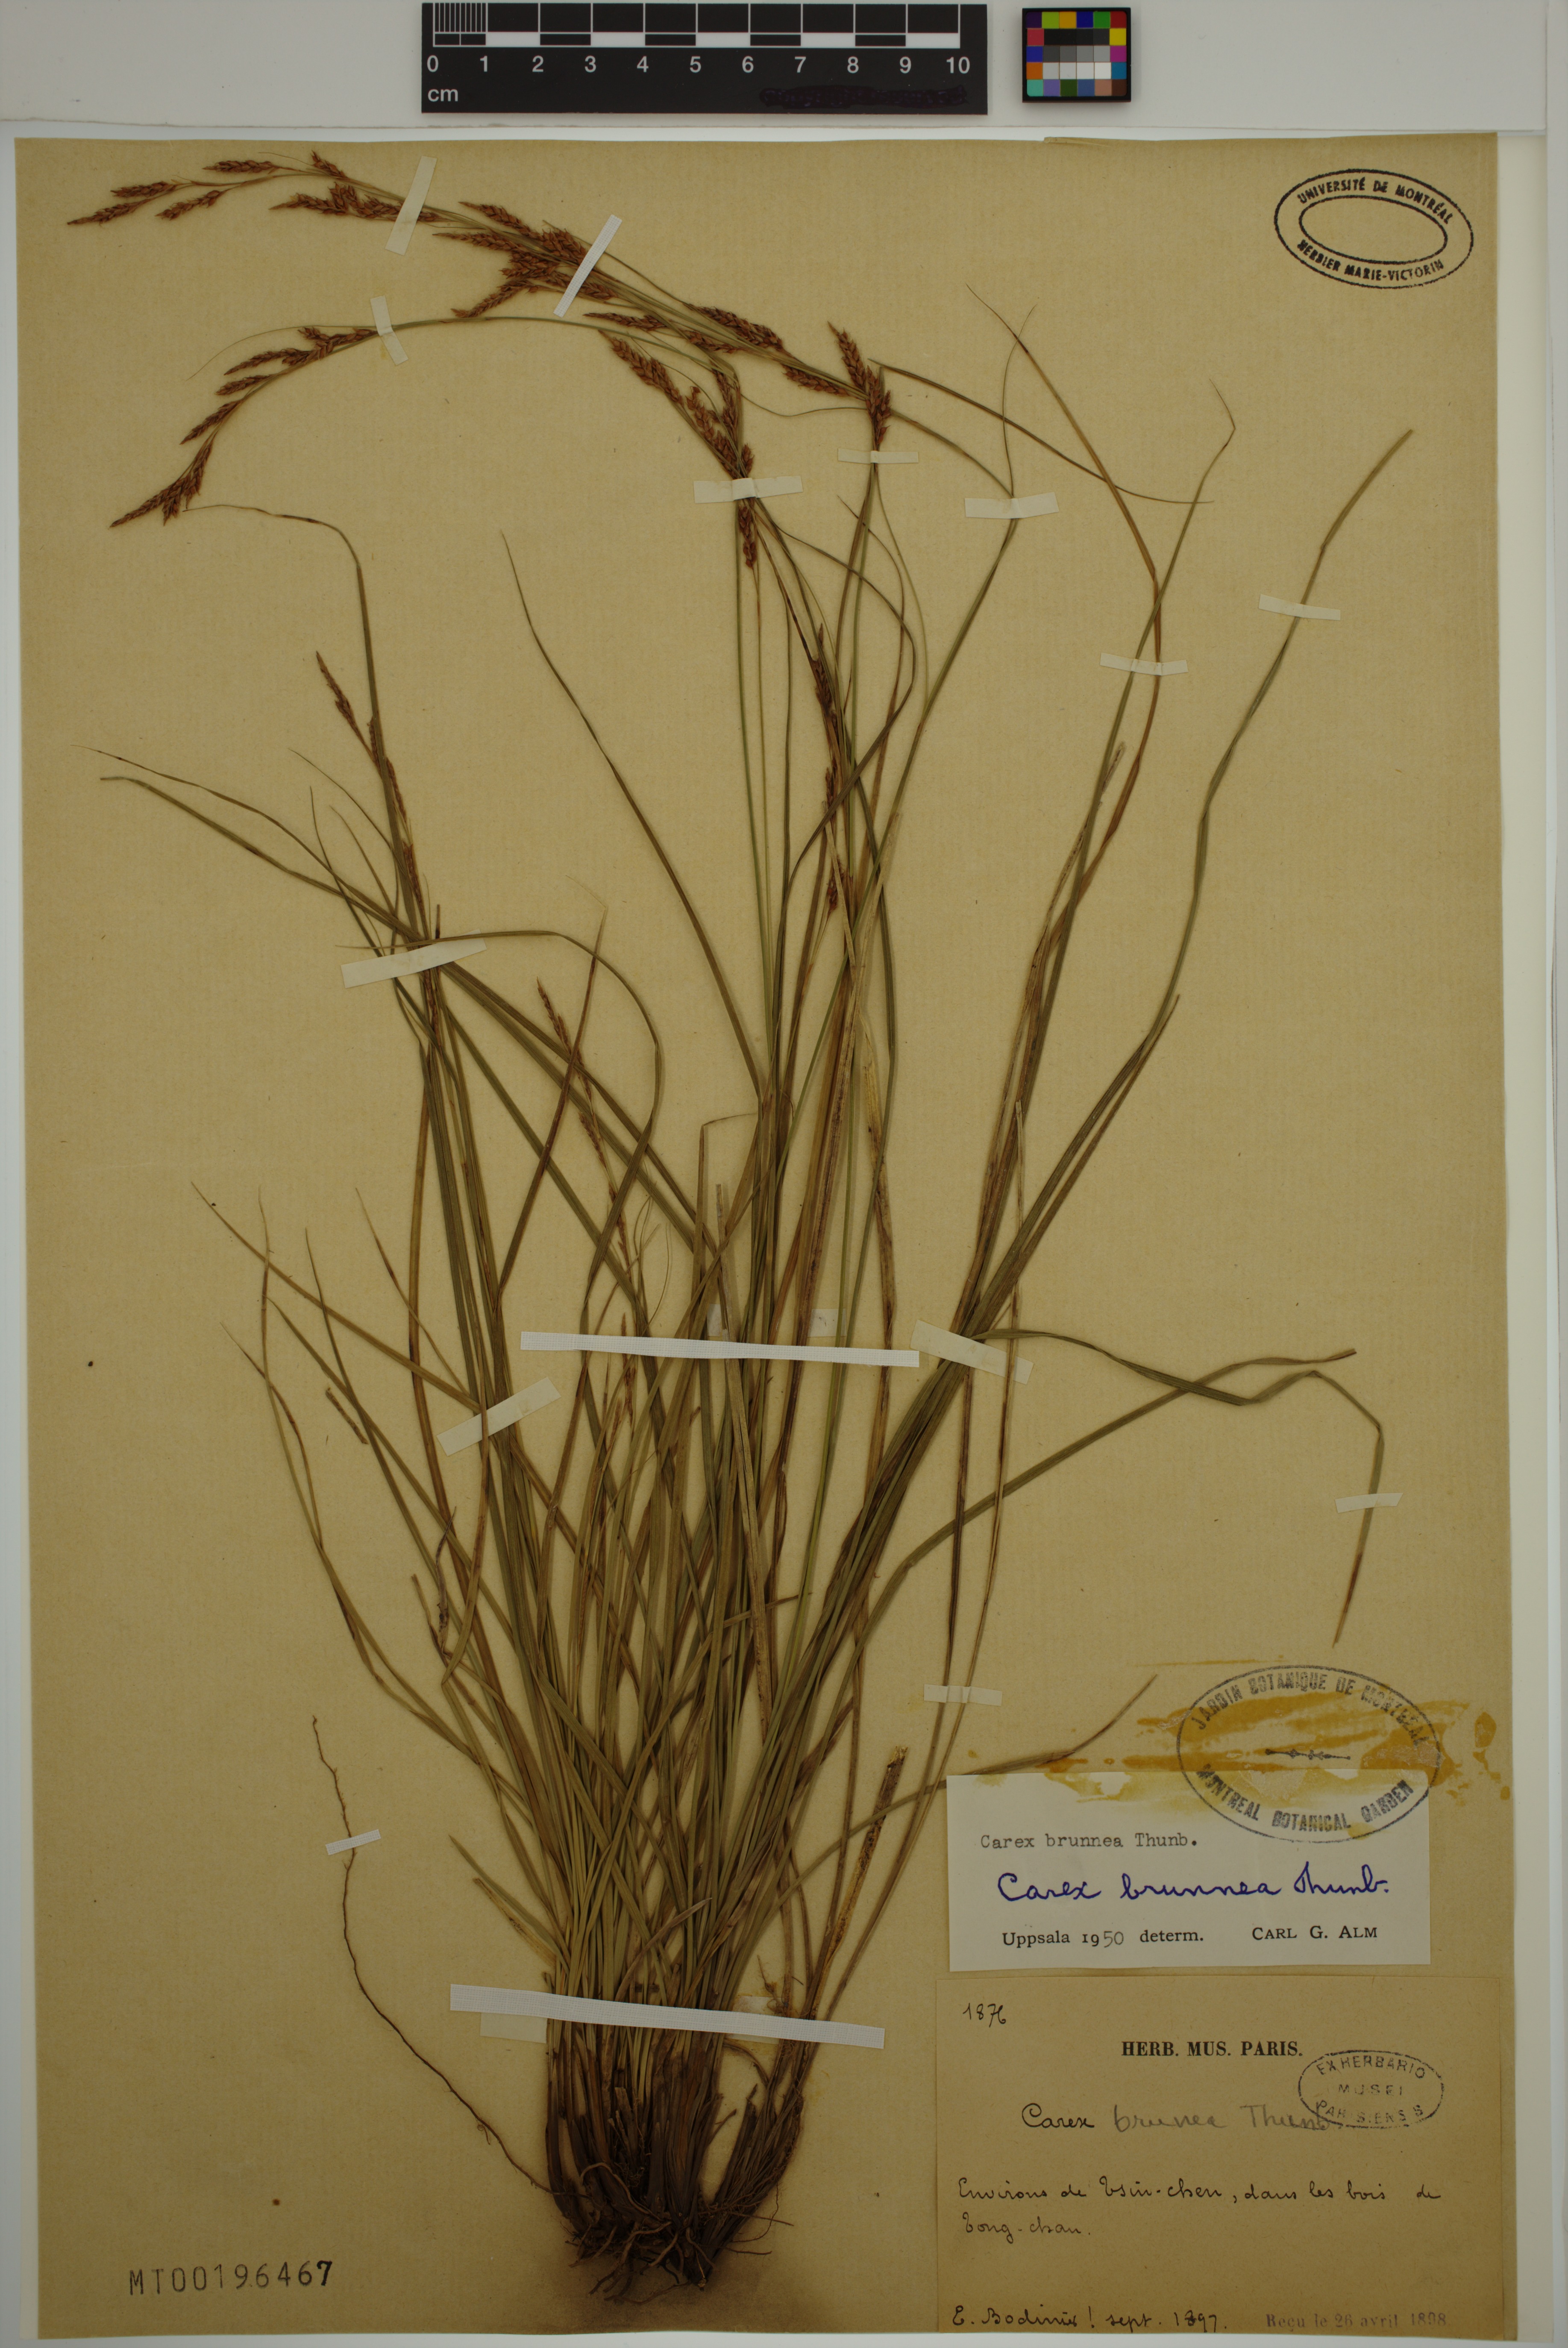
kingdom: Plantae
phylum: Tracheophyta
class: Liliopsida
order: Poales
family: Cyperaceae
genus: Carex
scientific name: Carex brunnea
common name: Greater brown sedge
